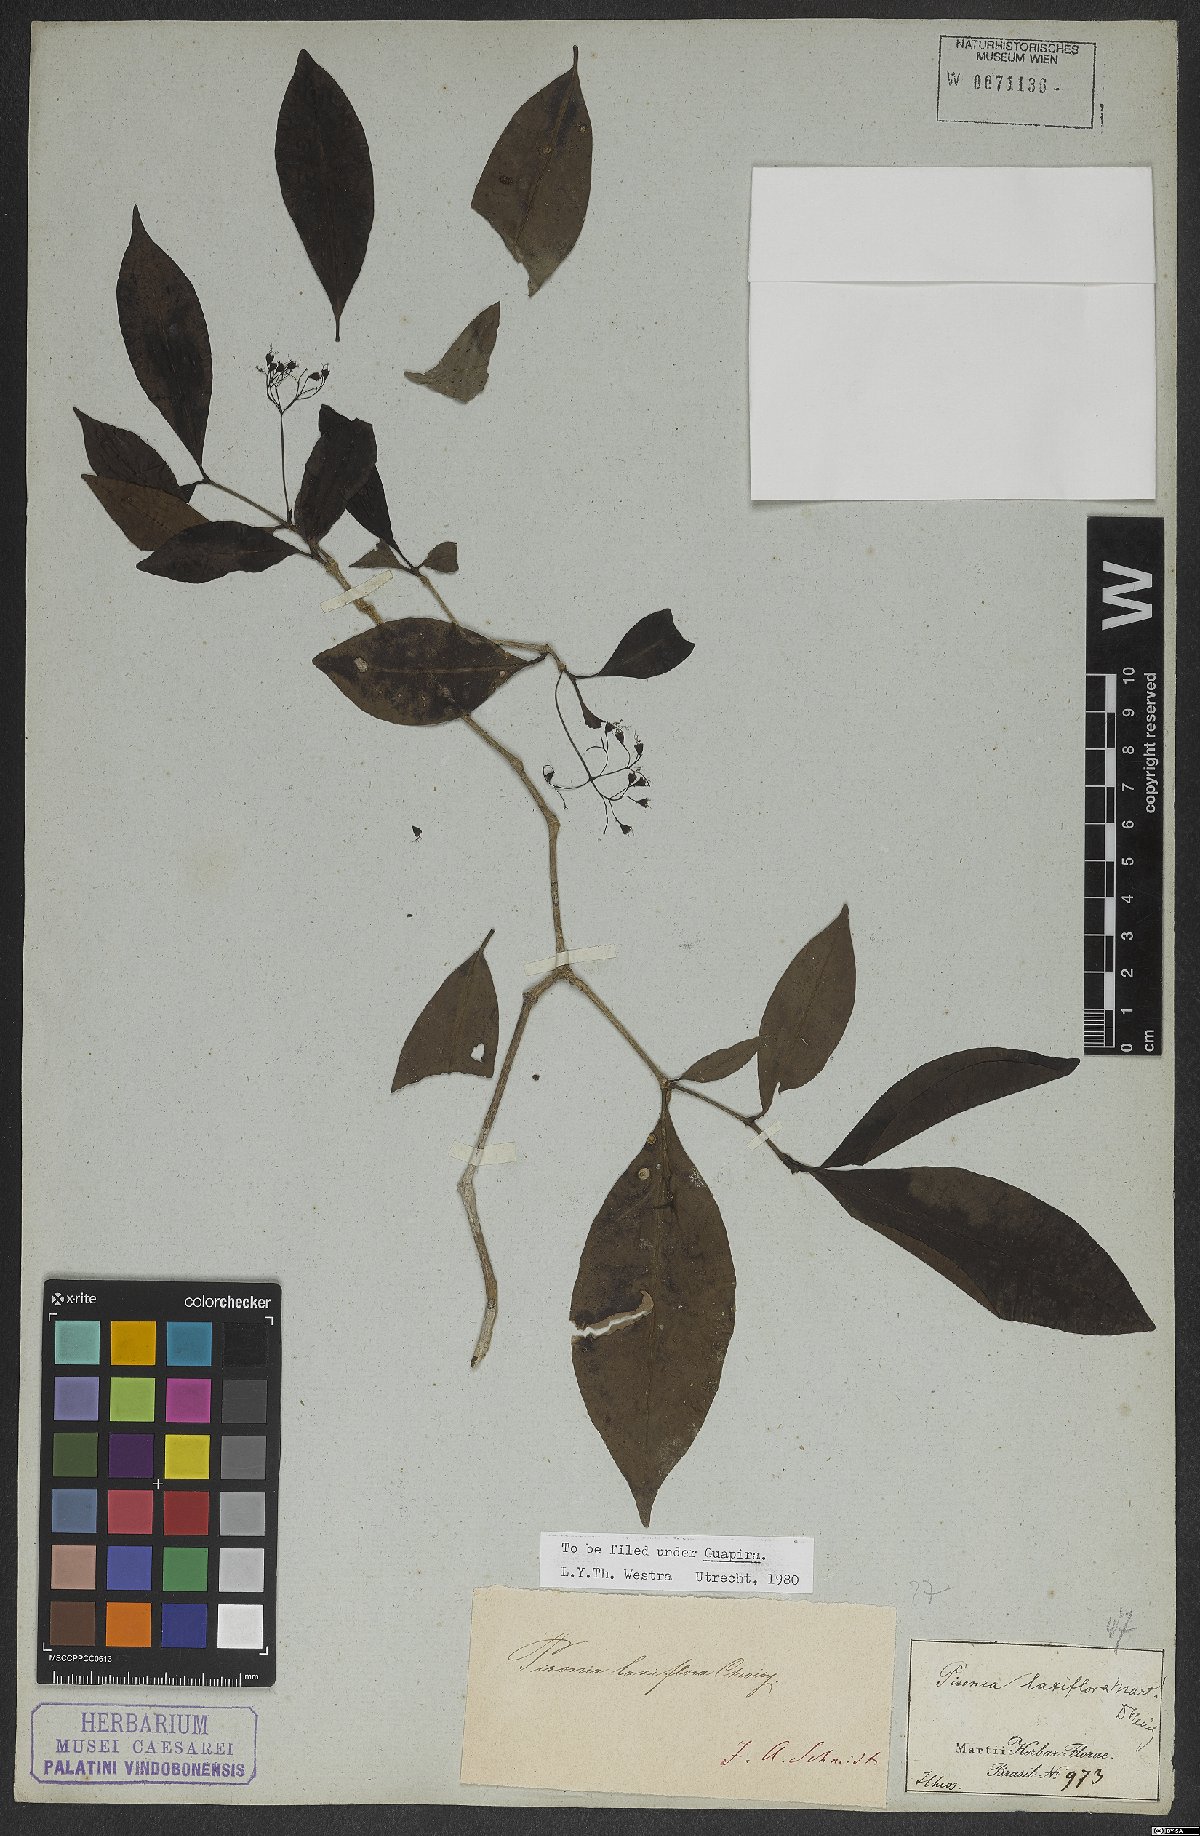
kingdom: Plantae
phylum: Tracheophyta
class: Magnoliopsida
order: Caryophyllales
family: Nyctaginaceae
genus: Guapira
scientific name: Guapira laxiflora
